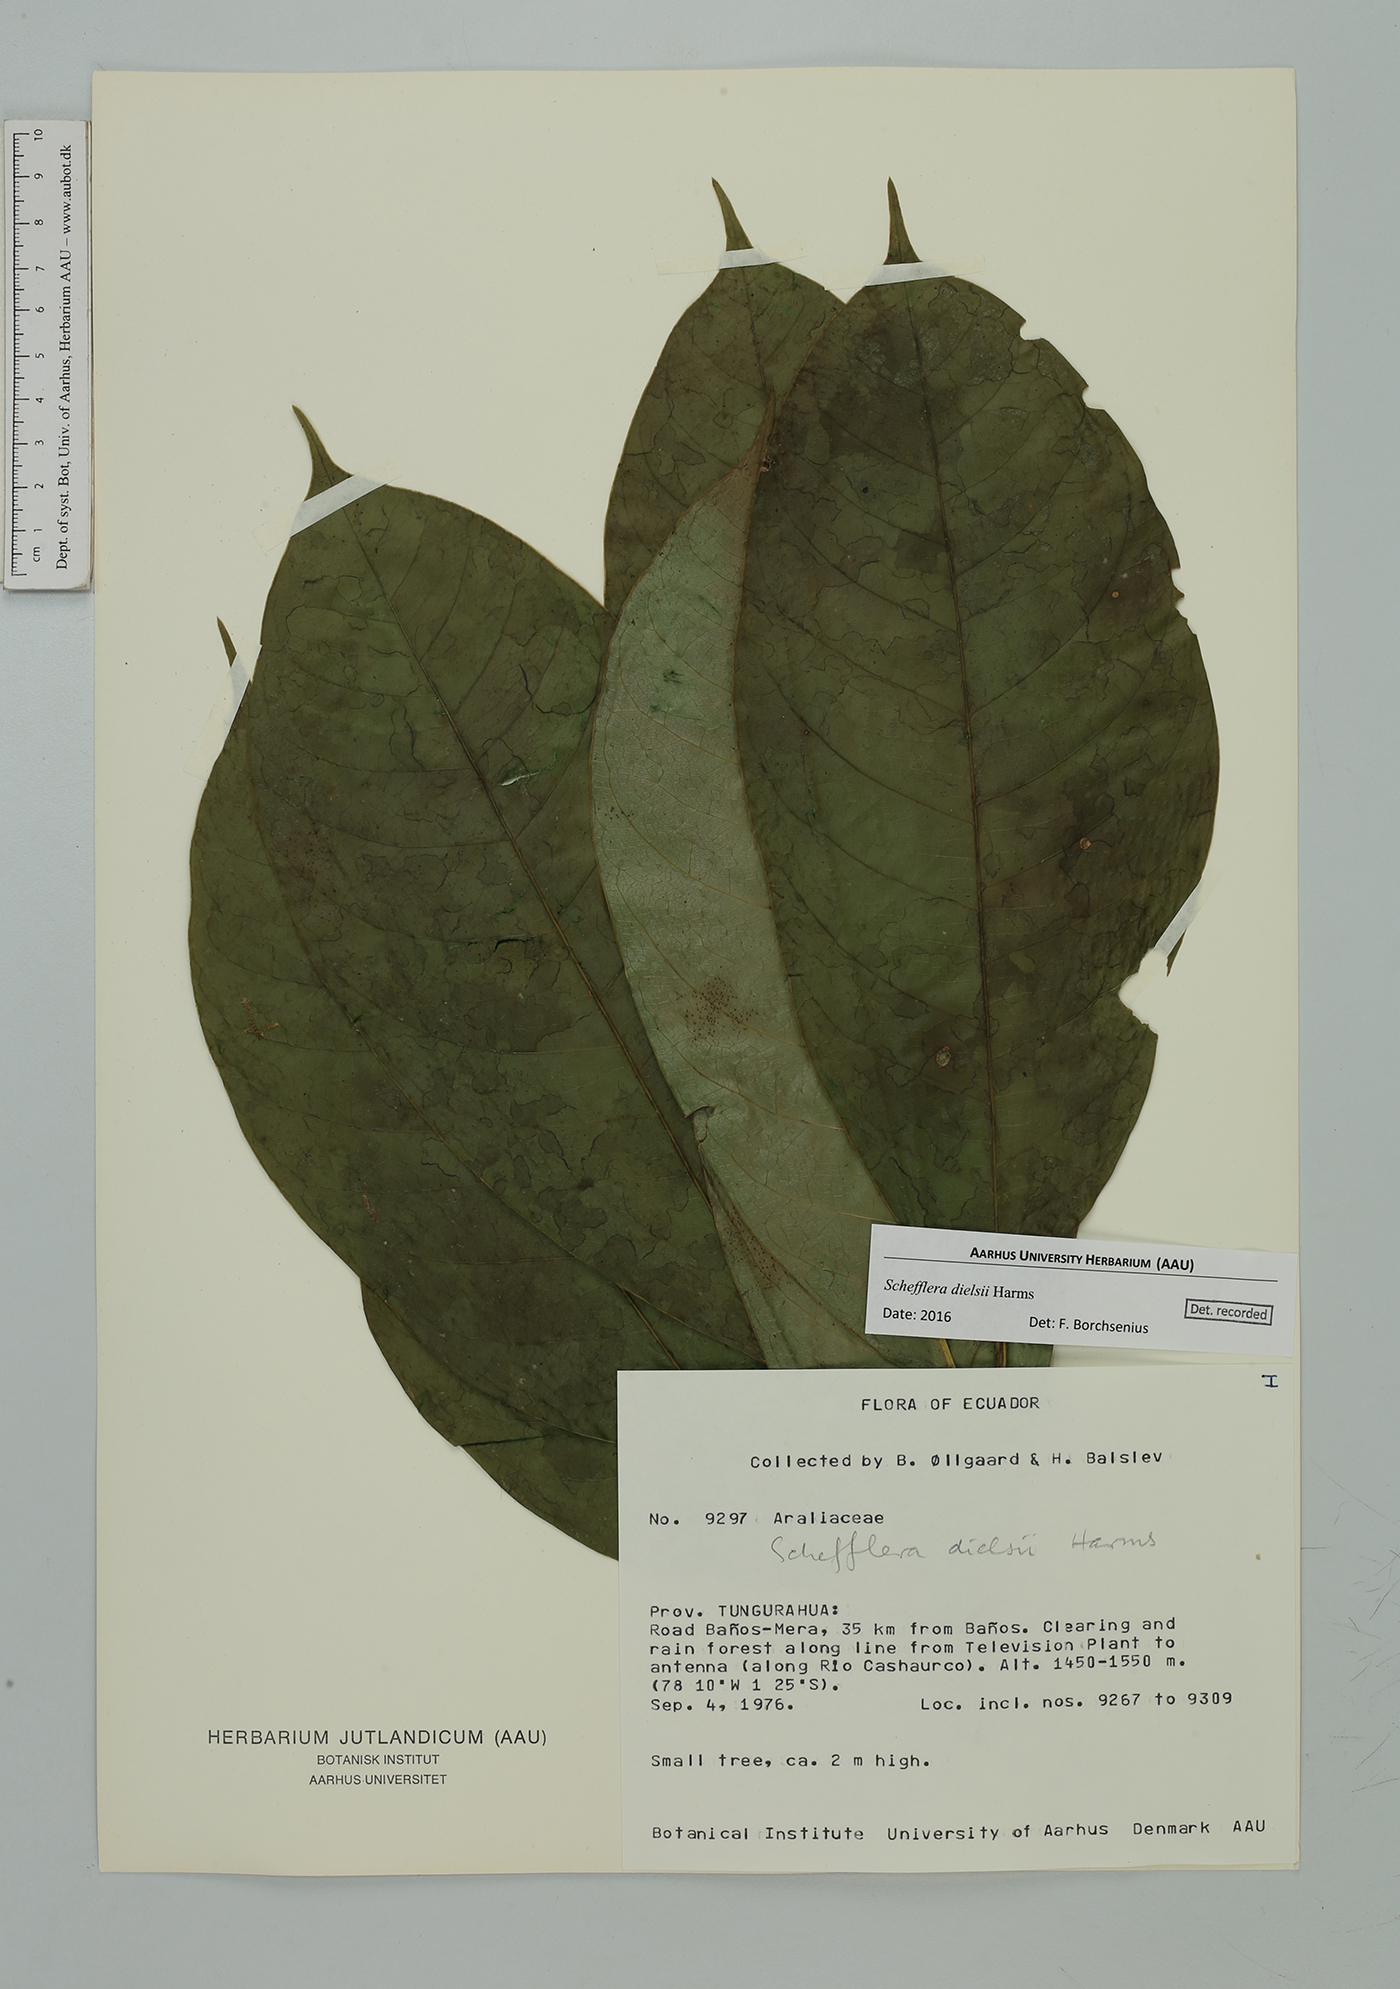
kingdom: Plantae
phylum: Tracheophyta
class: Magnoliopsida
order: Apiales
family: Araliaceae
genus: Sciodaphyllum
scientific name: Sciodaphyllum dielsii
